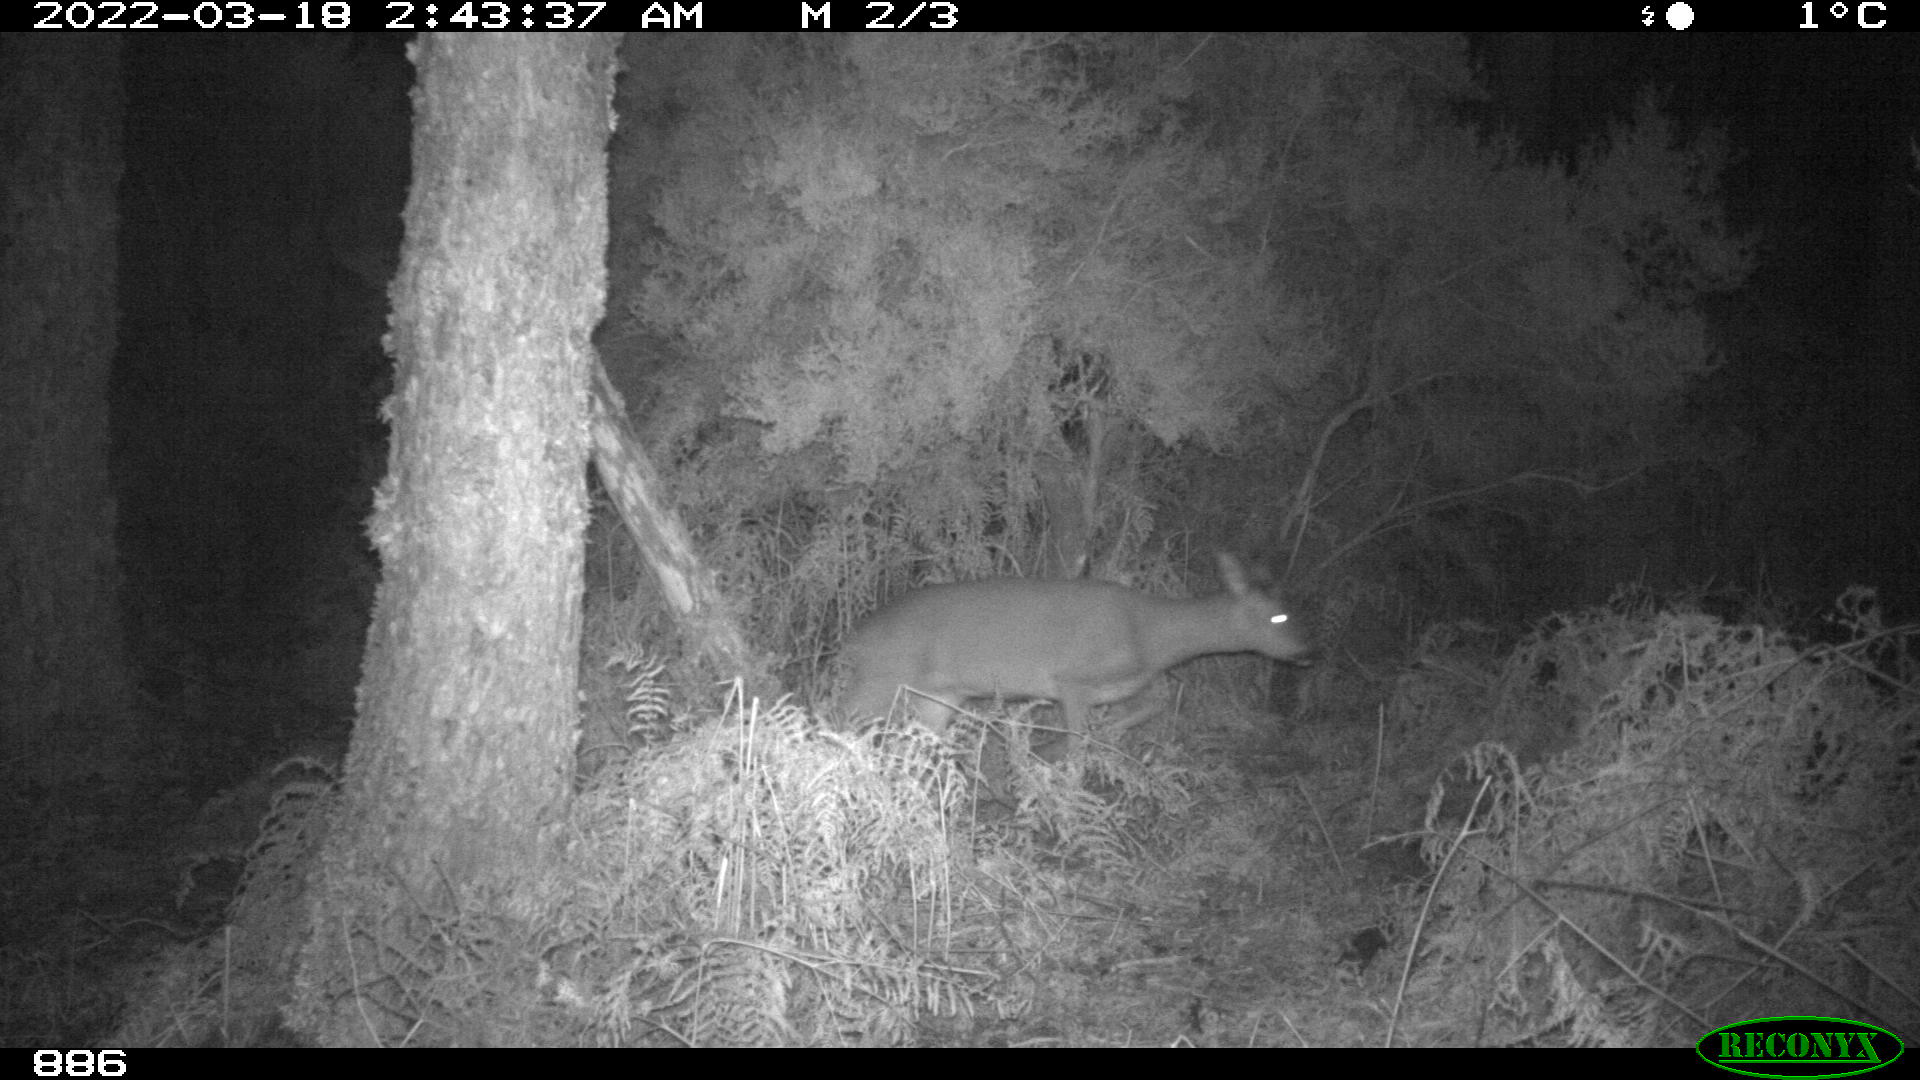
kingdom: Animalia
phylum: Chordata
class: Mammalia
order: Artiodactyla
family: Cervidae
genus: Capreolus
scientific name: Capreolus capreolus
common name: Western roe deer
